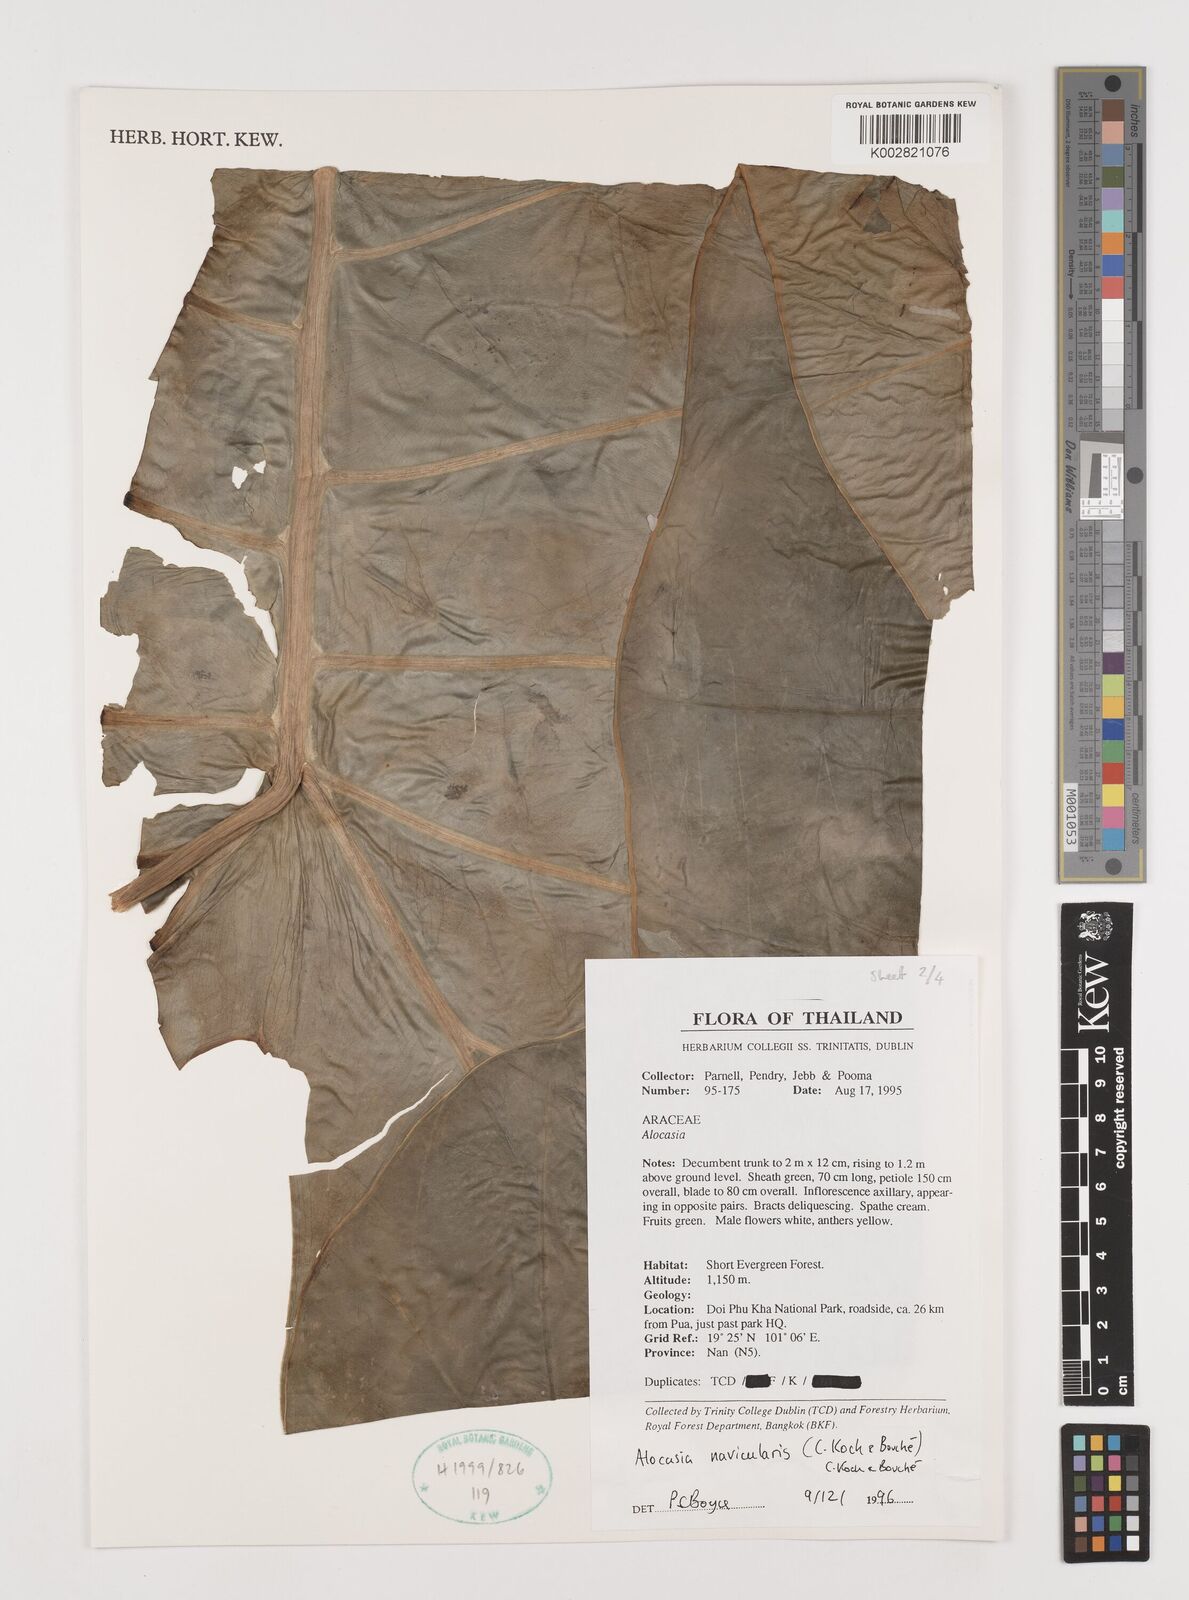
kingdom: Plantae
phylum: Tracheophyta
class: Liliopsida
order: Alismatales
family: Araceae
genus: Alocasia
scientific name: Alocasia navicularis
